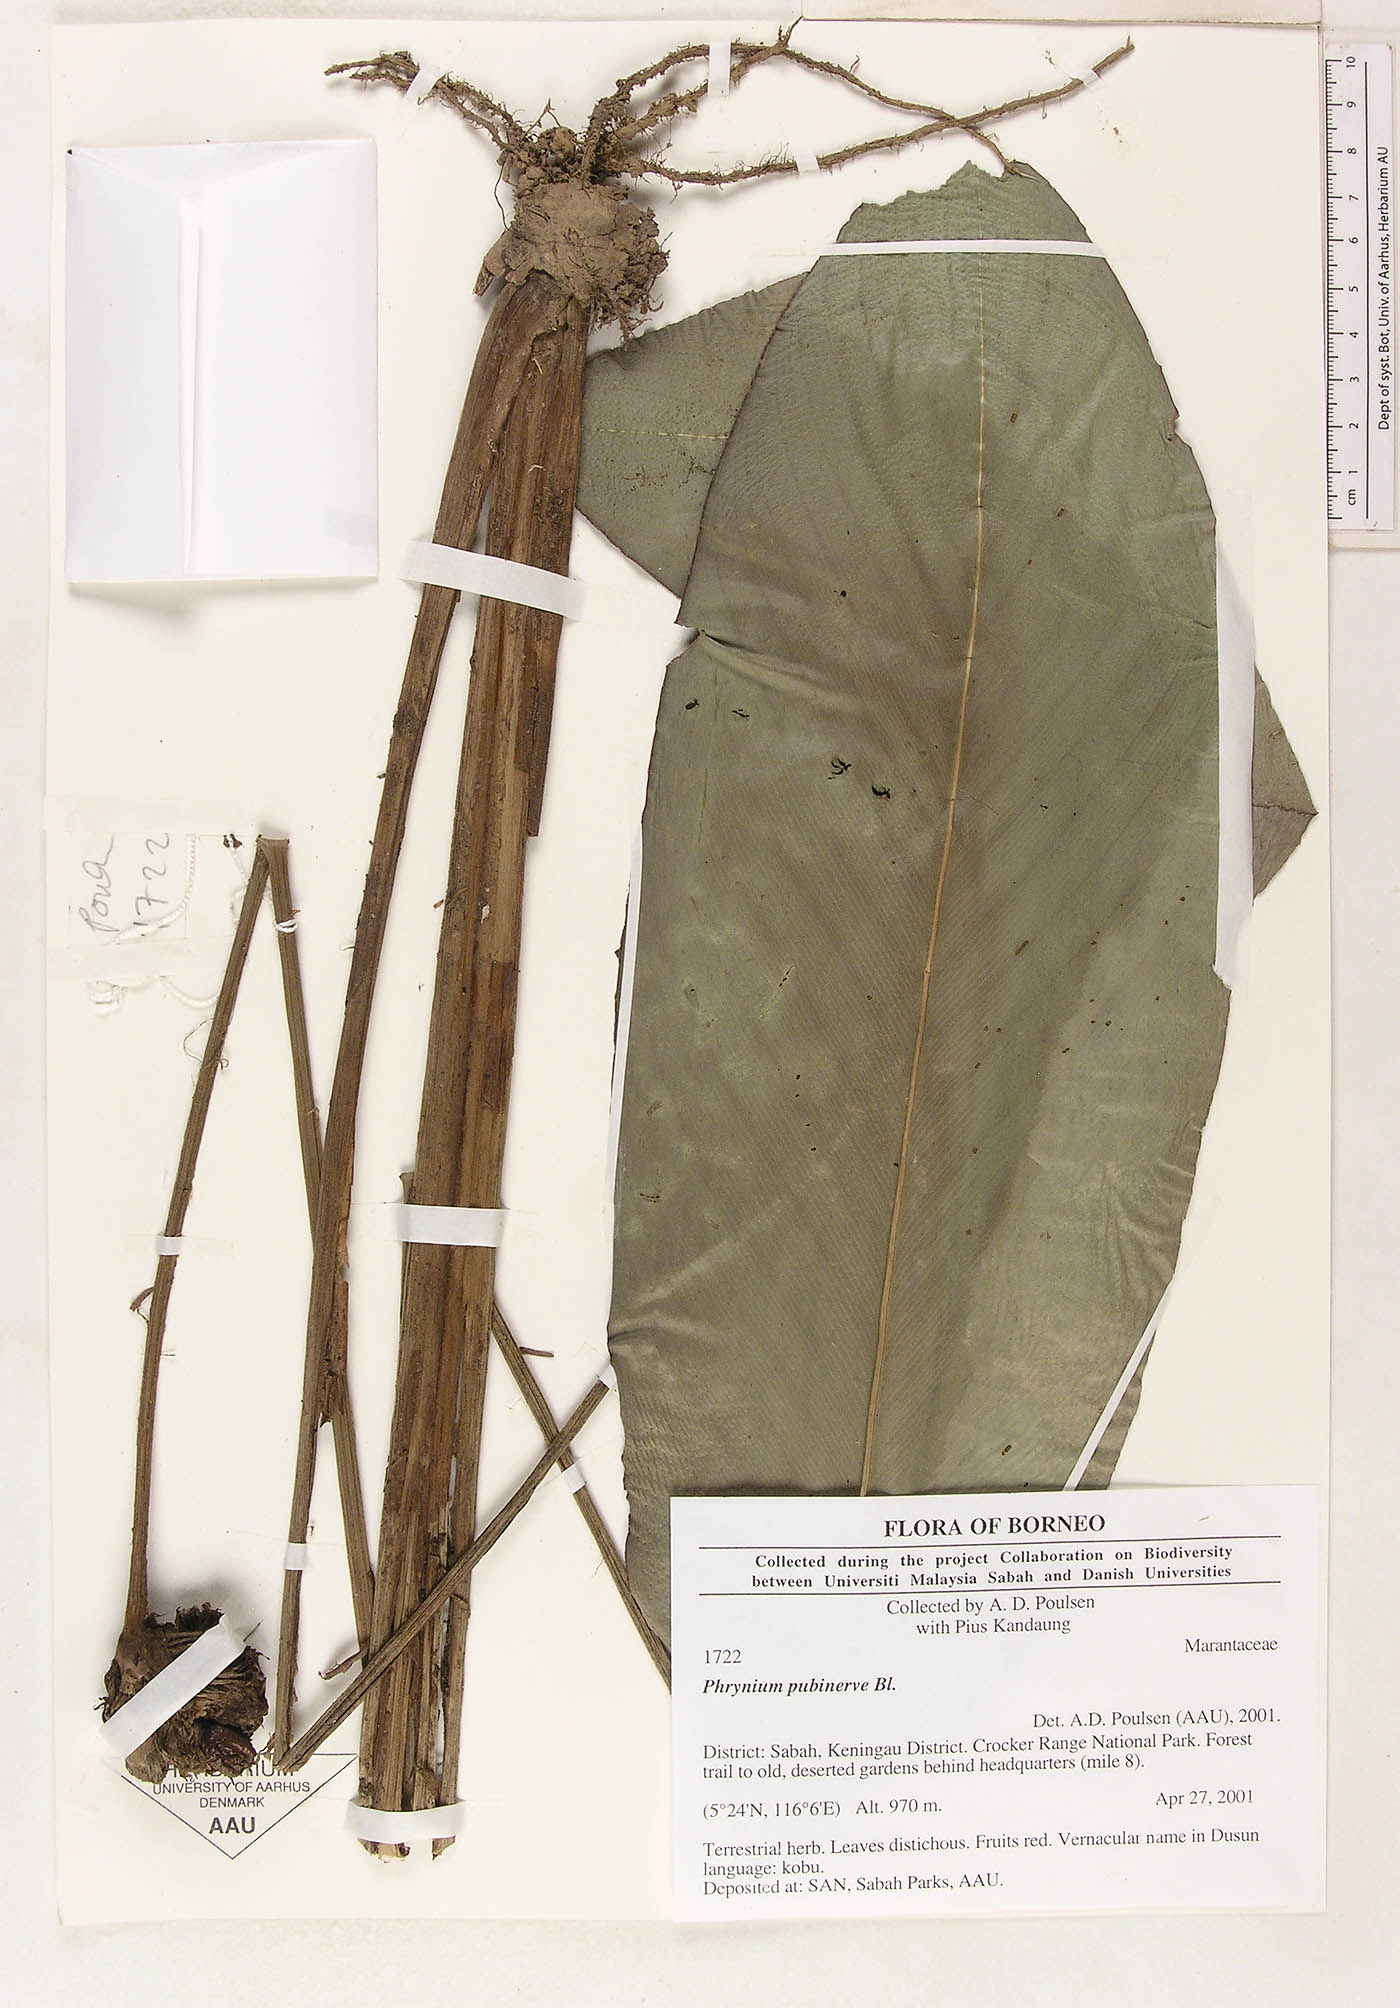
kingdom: Plantae
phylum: Tracheophyta
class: Liliopsida
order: Zingiberales
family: Marantaceae
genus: Phrynium
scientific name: Phrynium pubinerve
